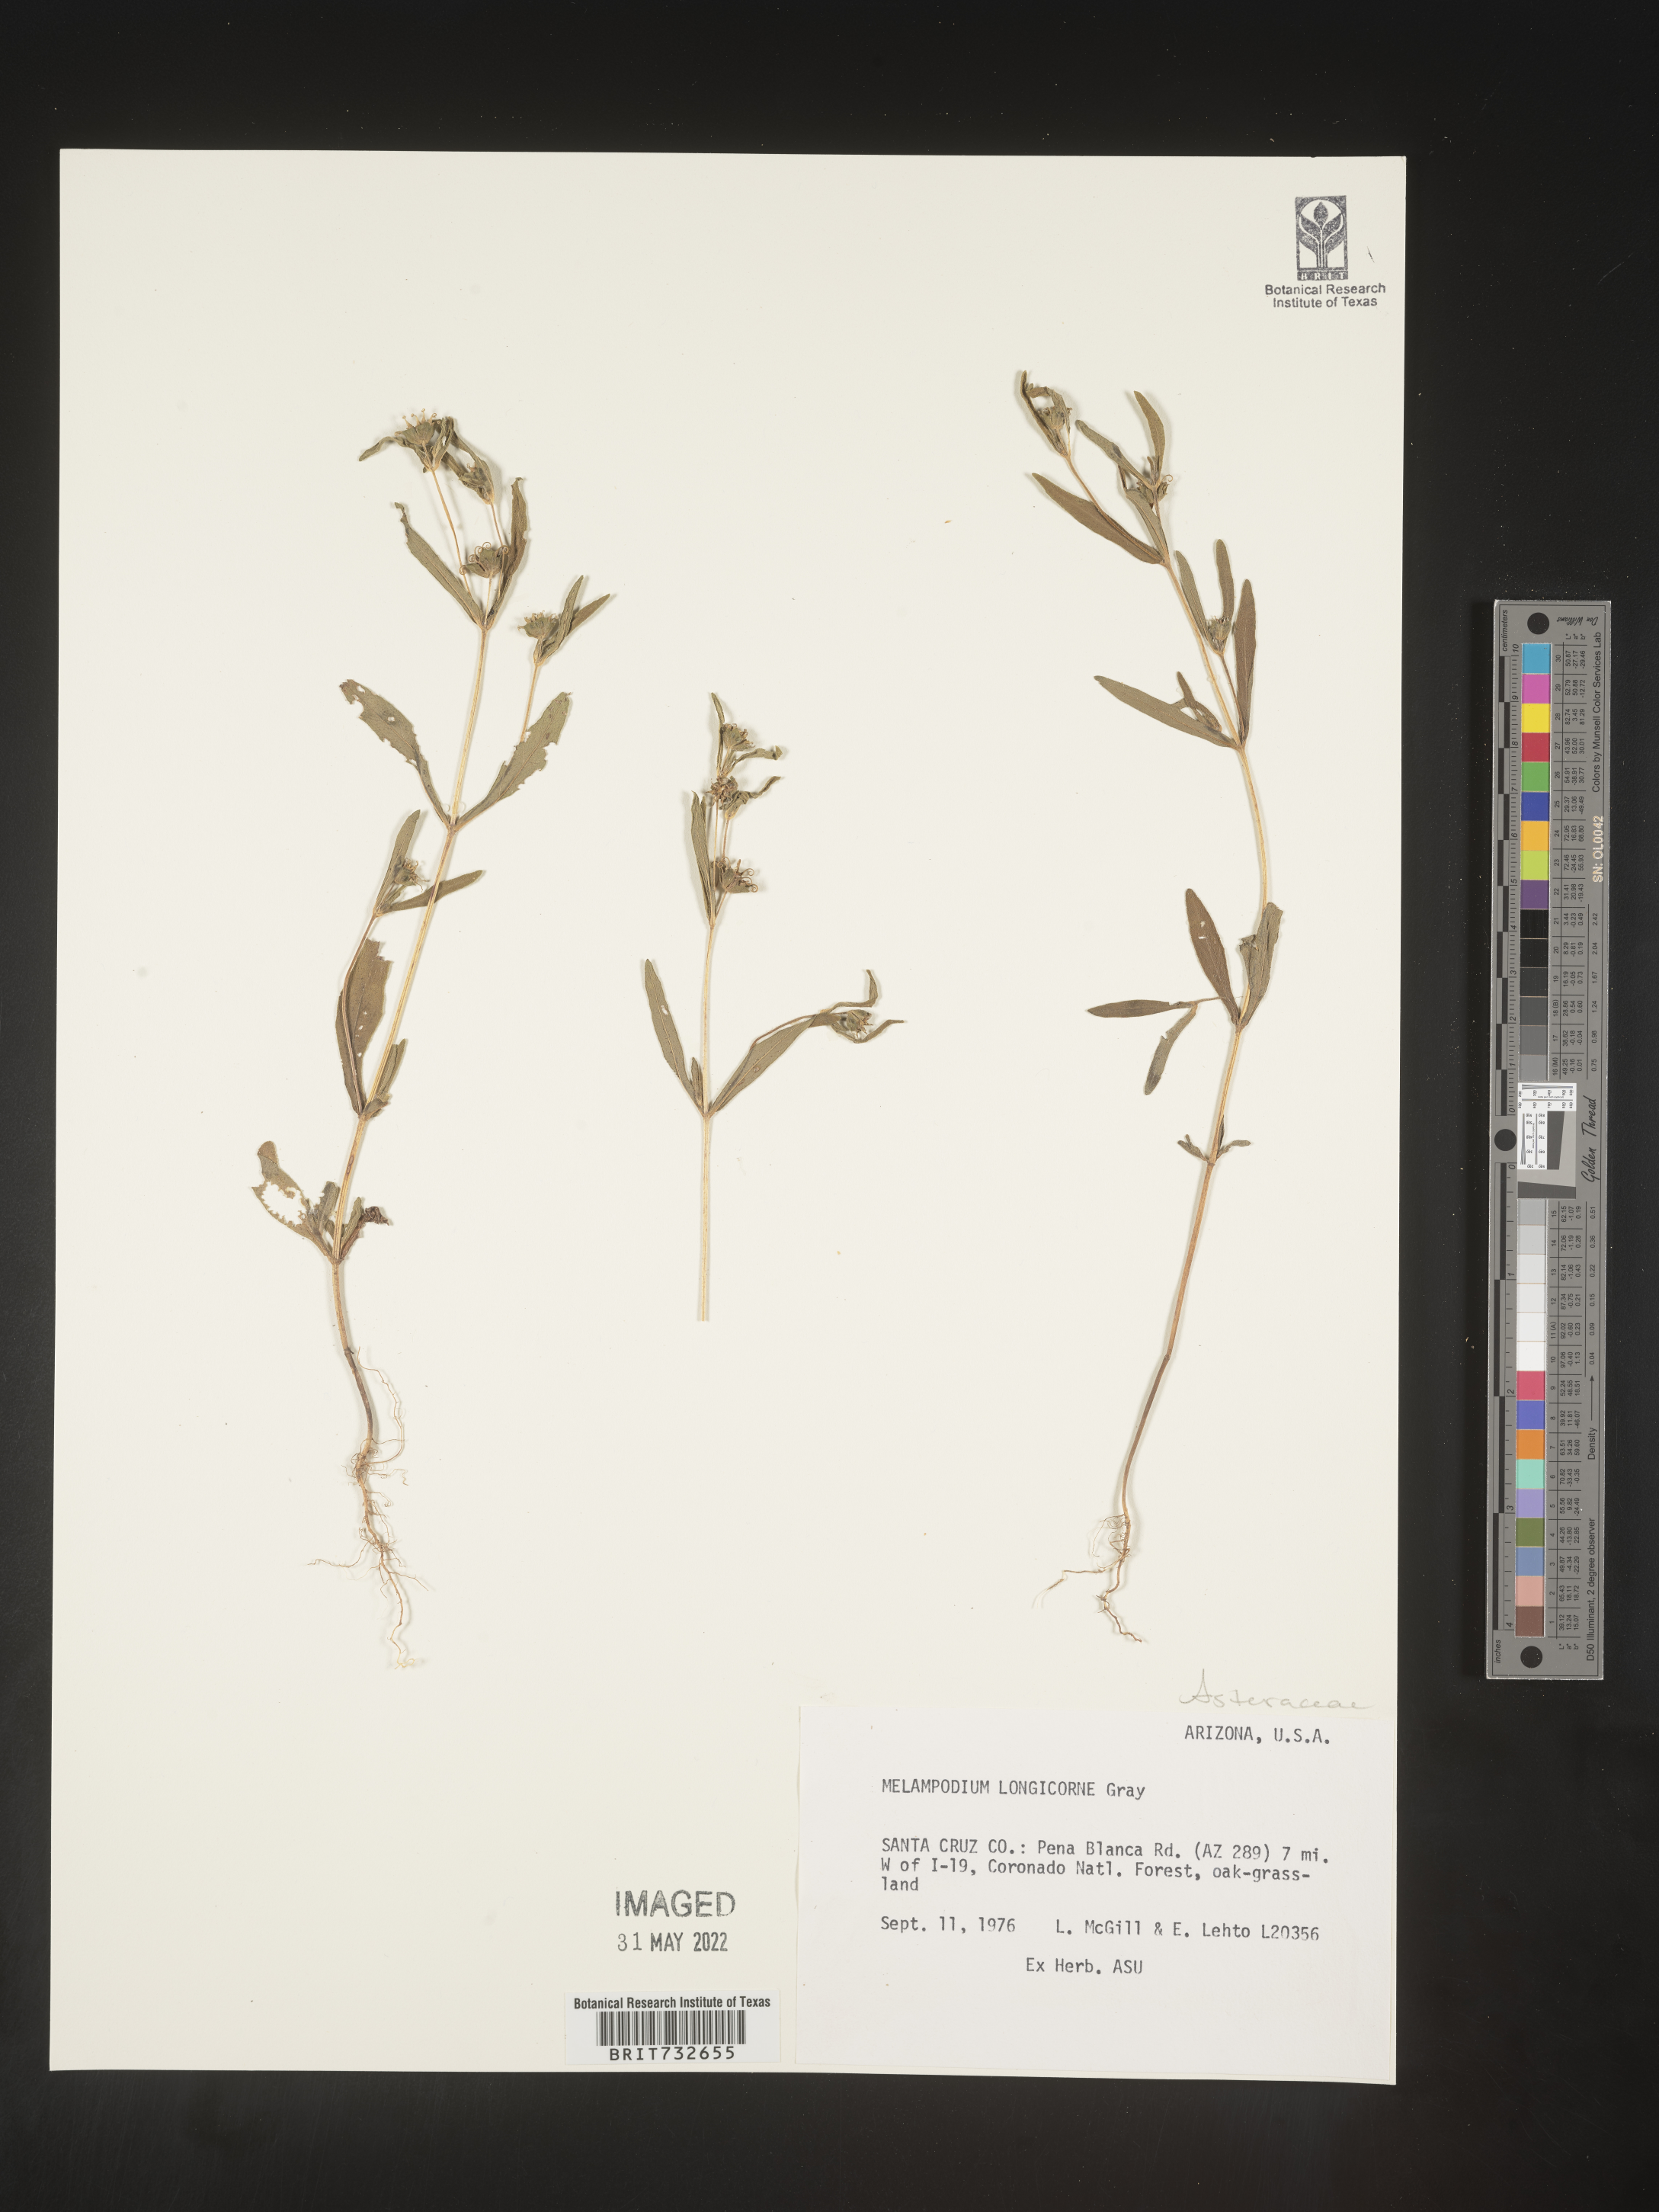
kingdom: Plantae
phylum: Tracheophyta
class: Magnoliopsida
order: Asterales
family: Asteraceae
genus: Melampodium
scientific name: Melampodium
